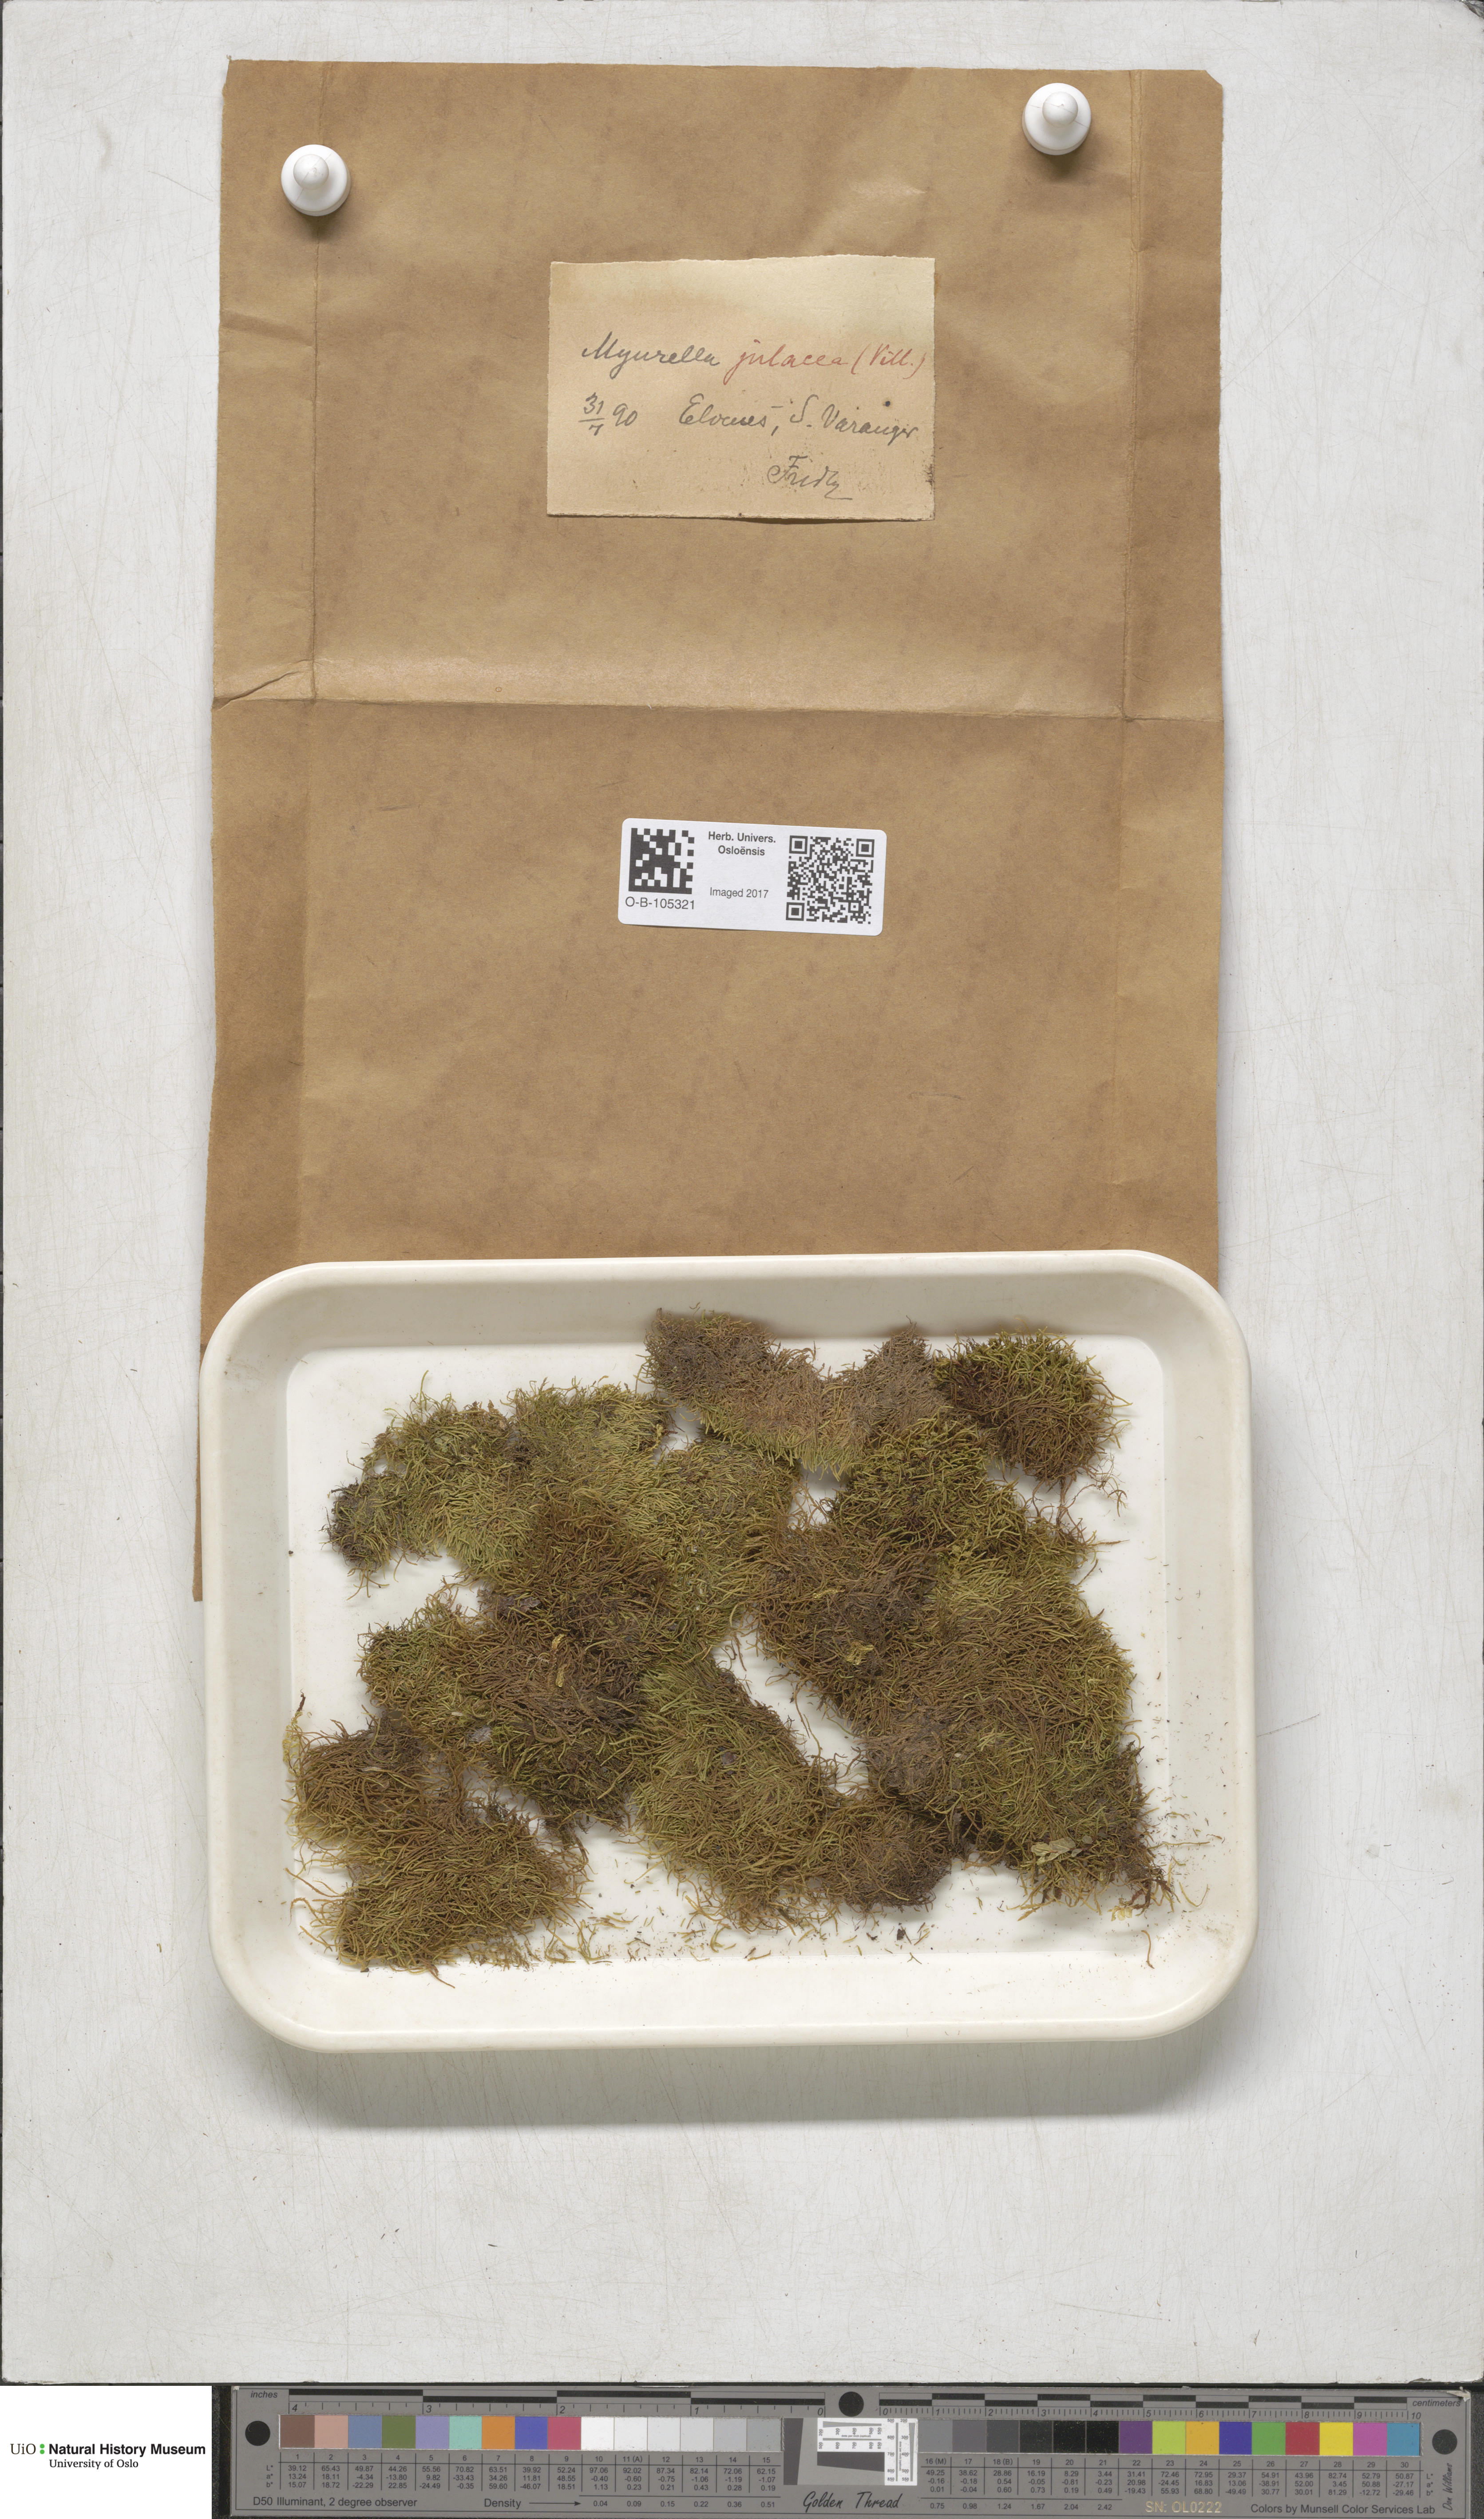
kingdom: Plantae
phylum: Bryophyta
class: Bryopsida
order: Hypnales
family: Plagiotheciaceae
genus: Myurella
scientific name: Myurella julacea
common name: Small mousetail moss
